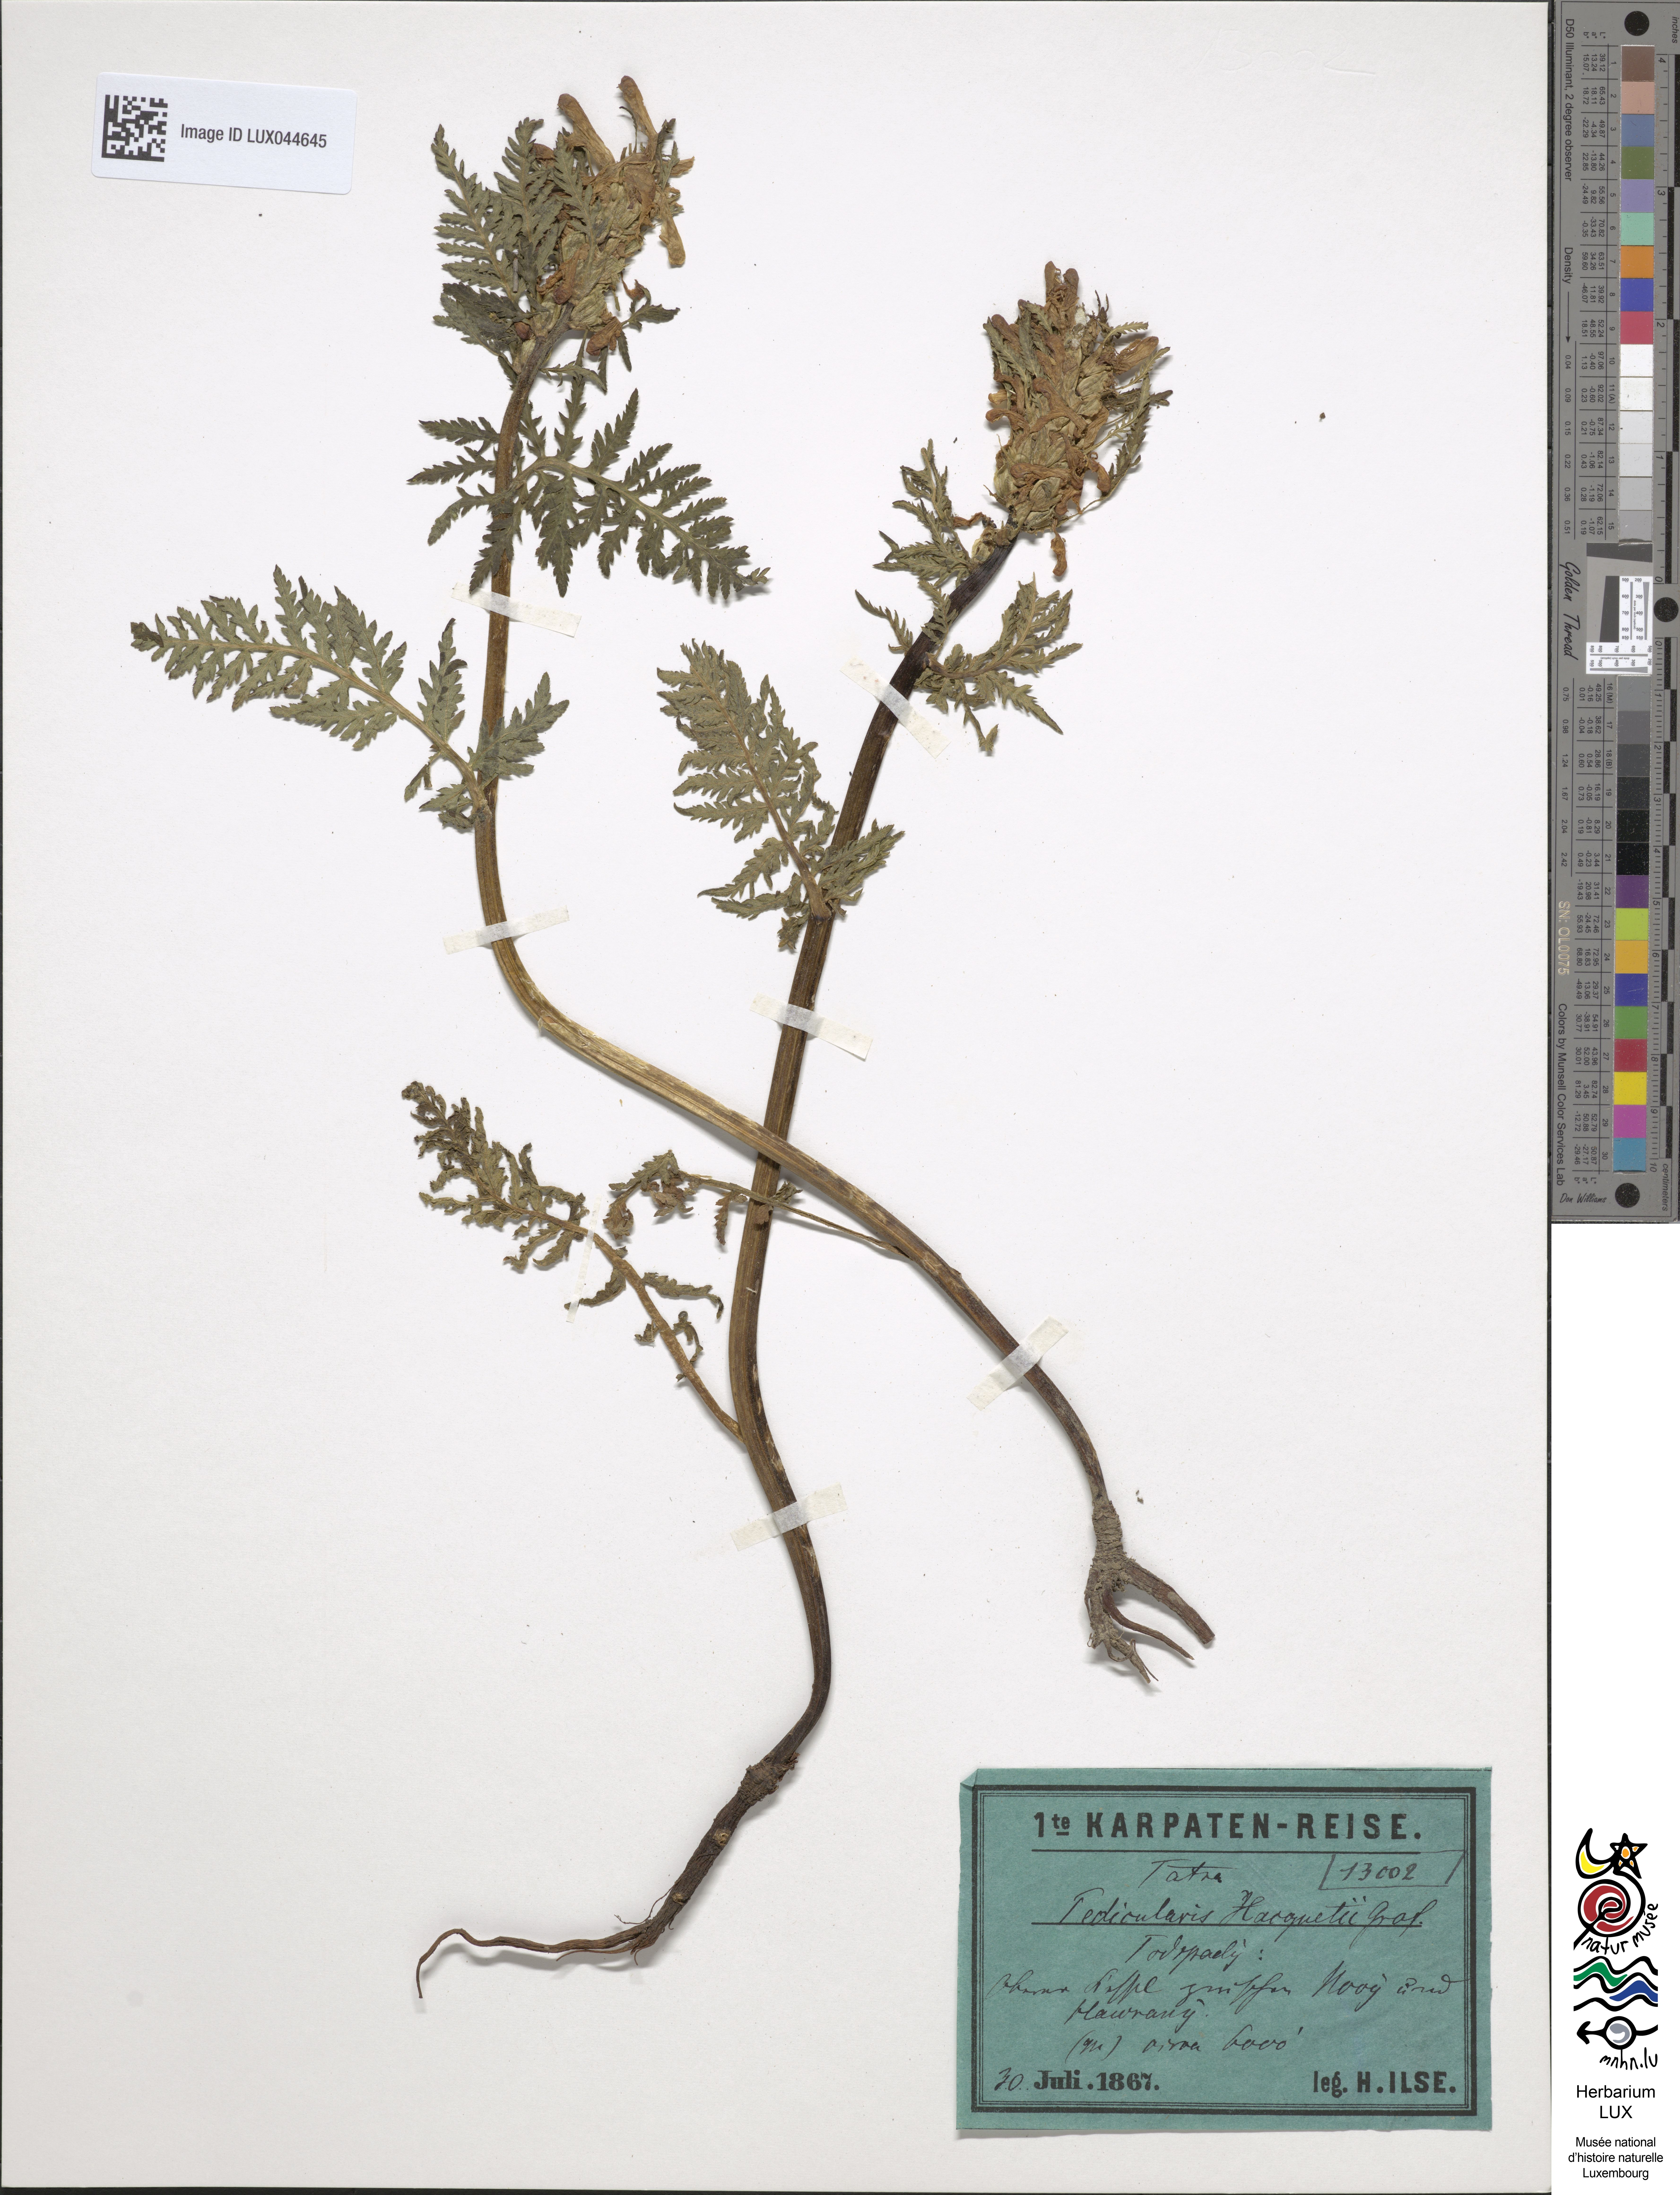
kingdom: Plantae
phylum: Tracheophyta
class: Magnoliopsida
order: Lamiales
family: Orobanchaceae
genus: Pedicularis
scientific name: Pedicularis hacquetii
